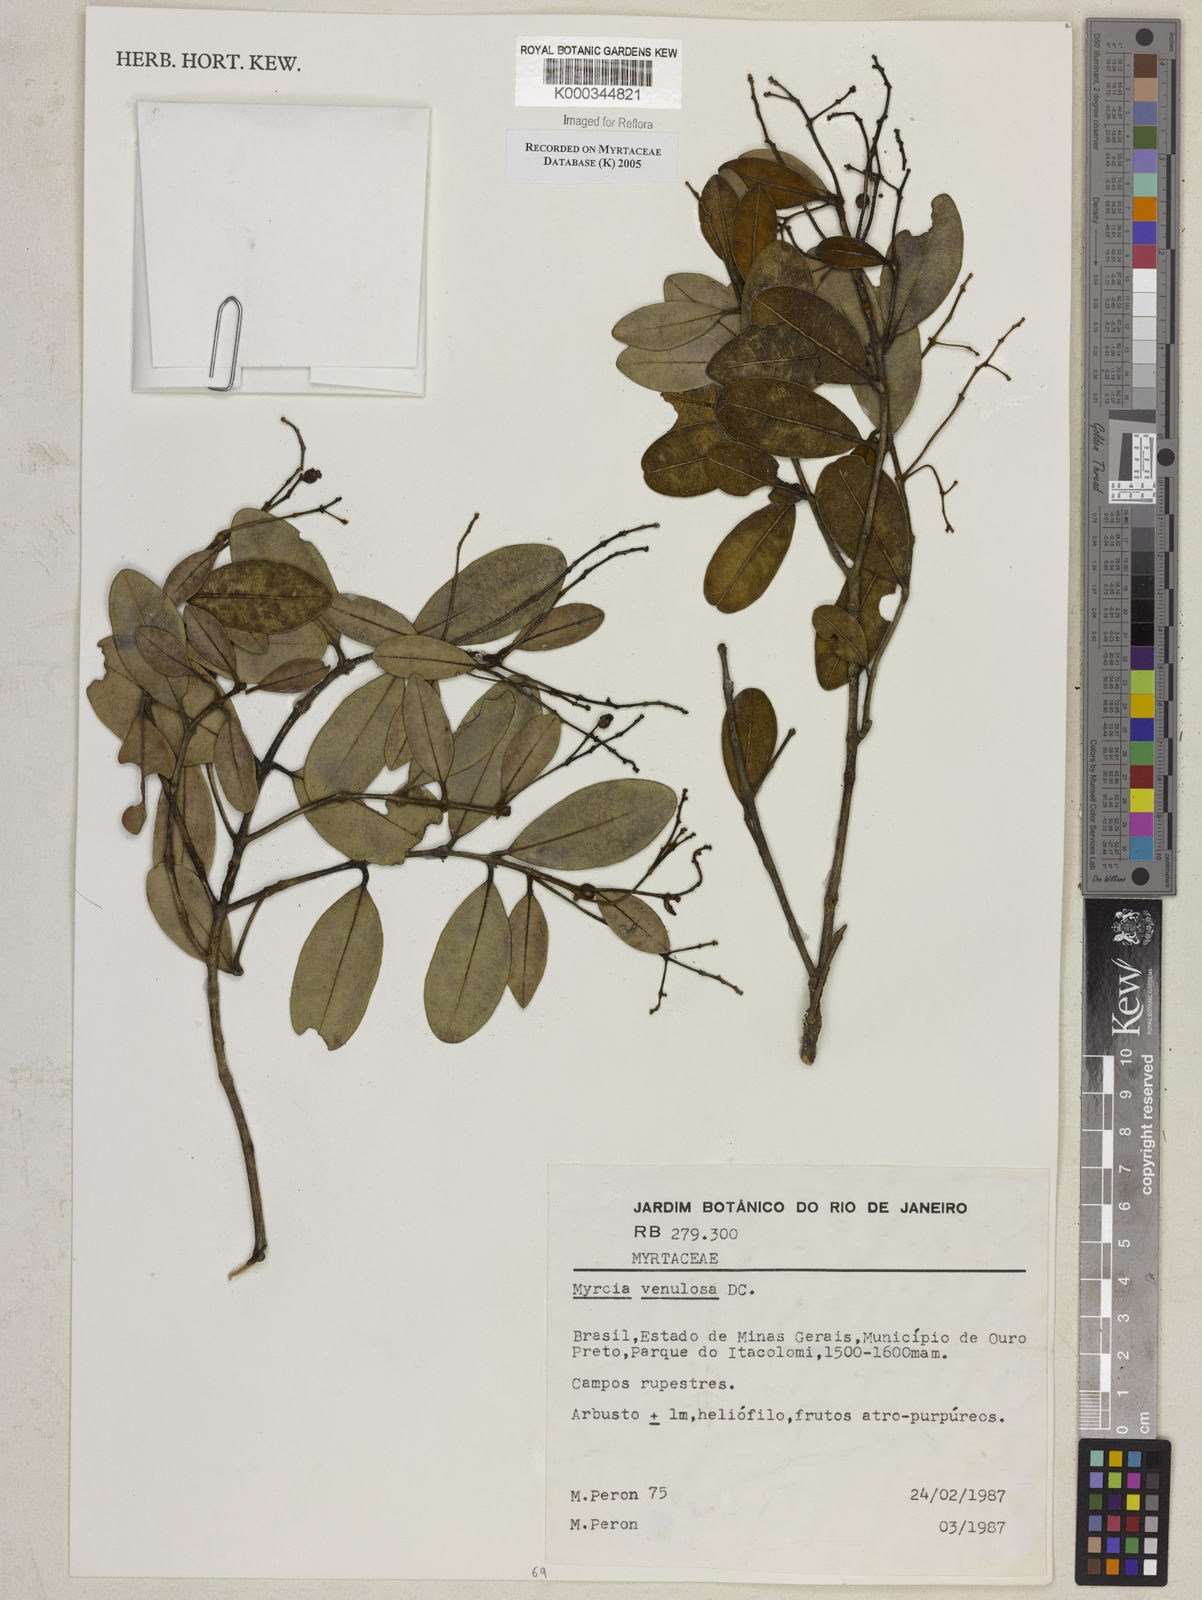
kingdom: Plantae
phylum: Tracheophyta
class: Magnoliopsida
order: Myrtales
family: Myrtaceae
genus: Myrcia
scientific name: Myrcia venulosa
